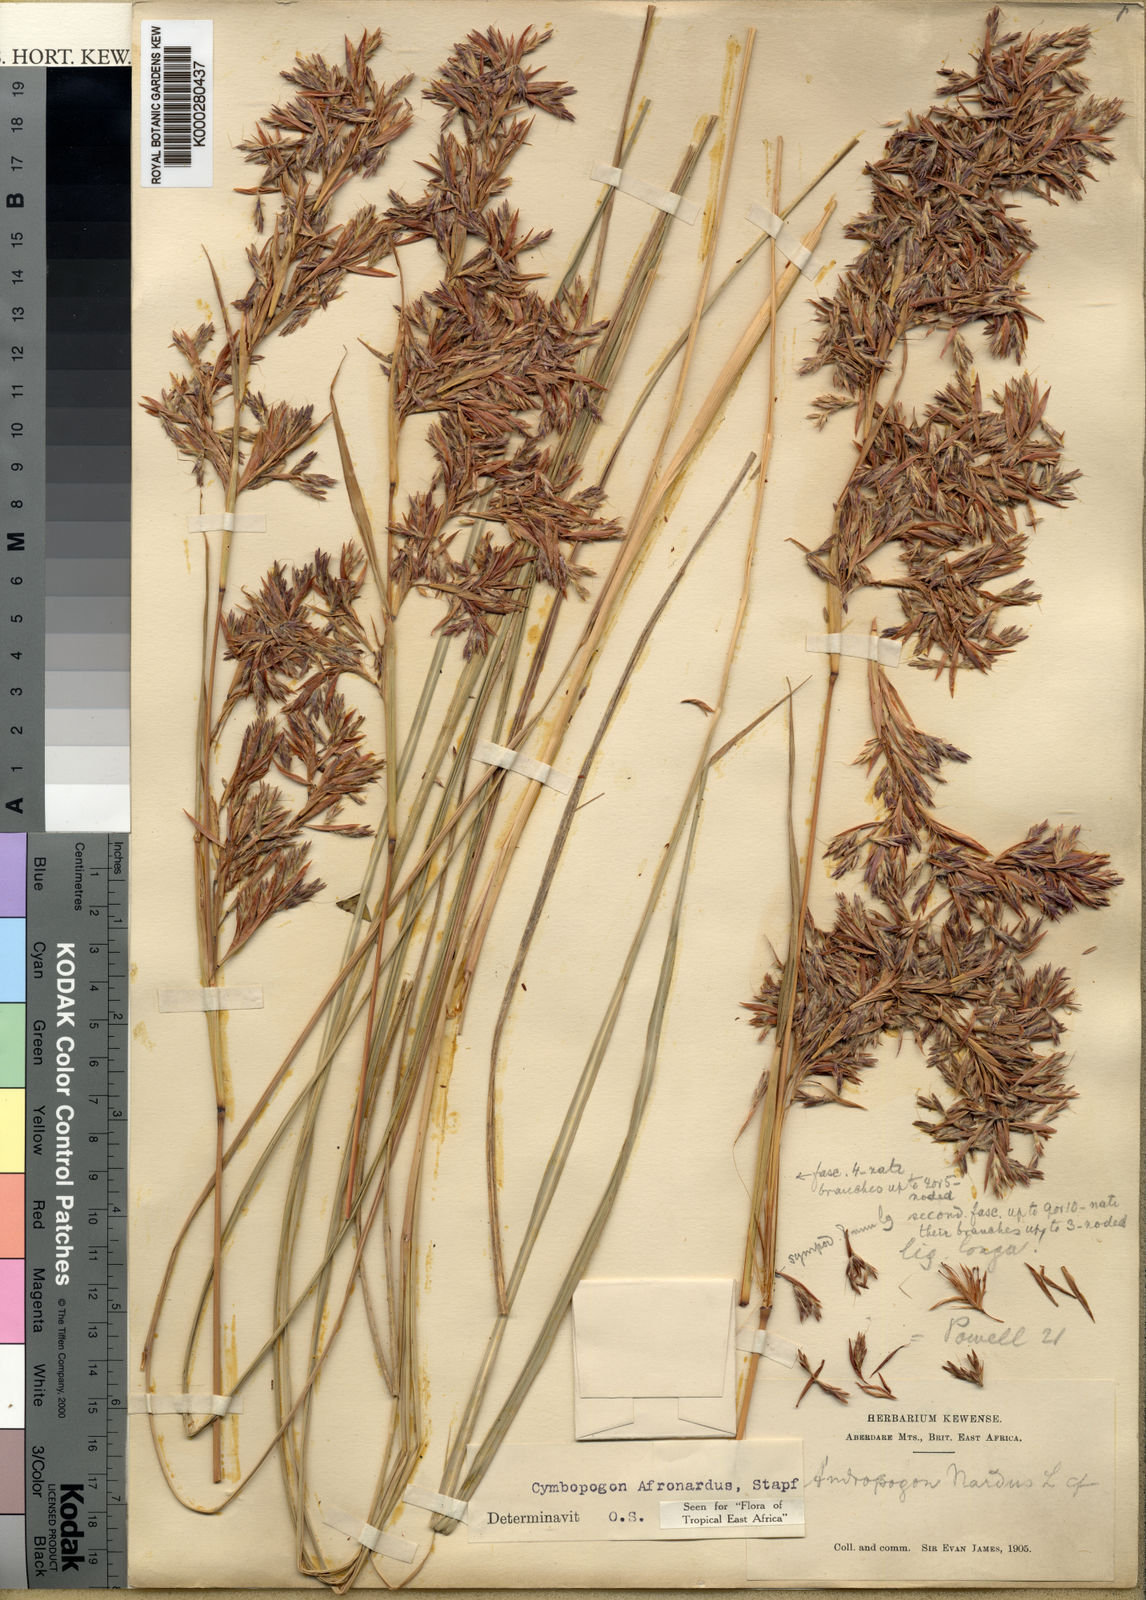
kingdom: Plantae
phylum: Tracheophyta
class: Liliopsida
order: Poales
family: Poaceae
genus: Cymbopogon
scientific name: Cymbopogon nardus
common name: Giant turpentine grass
